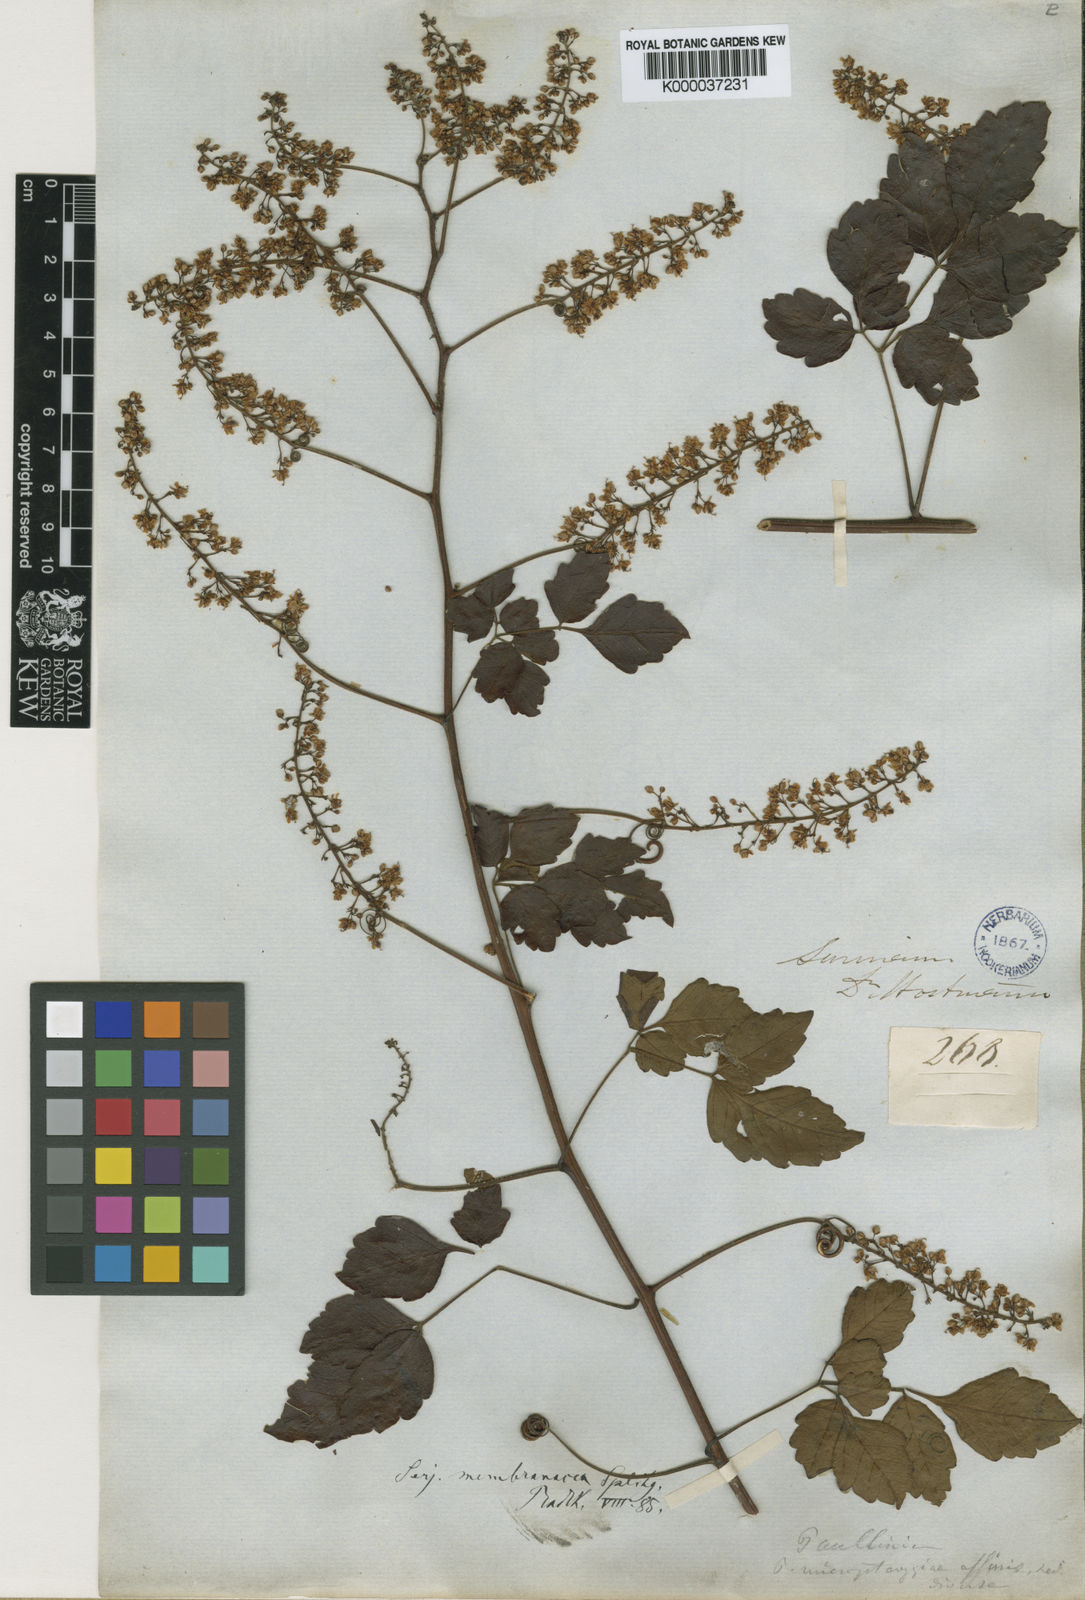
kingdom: Plantae
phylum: Tracheophyta
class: Magnoliopsida
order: Sapindales
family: Sapindaceae
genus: Serjania
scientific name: Serjania membranacea
